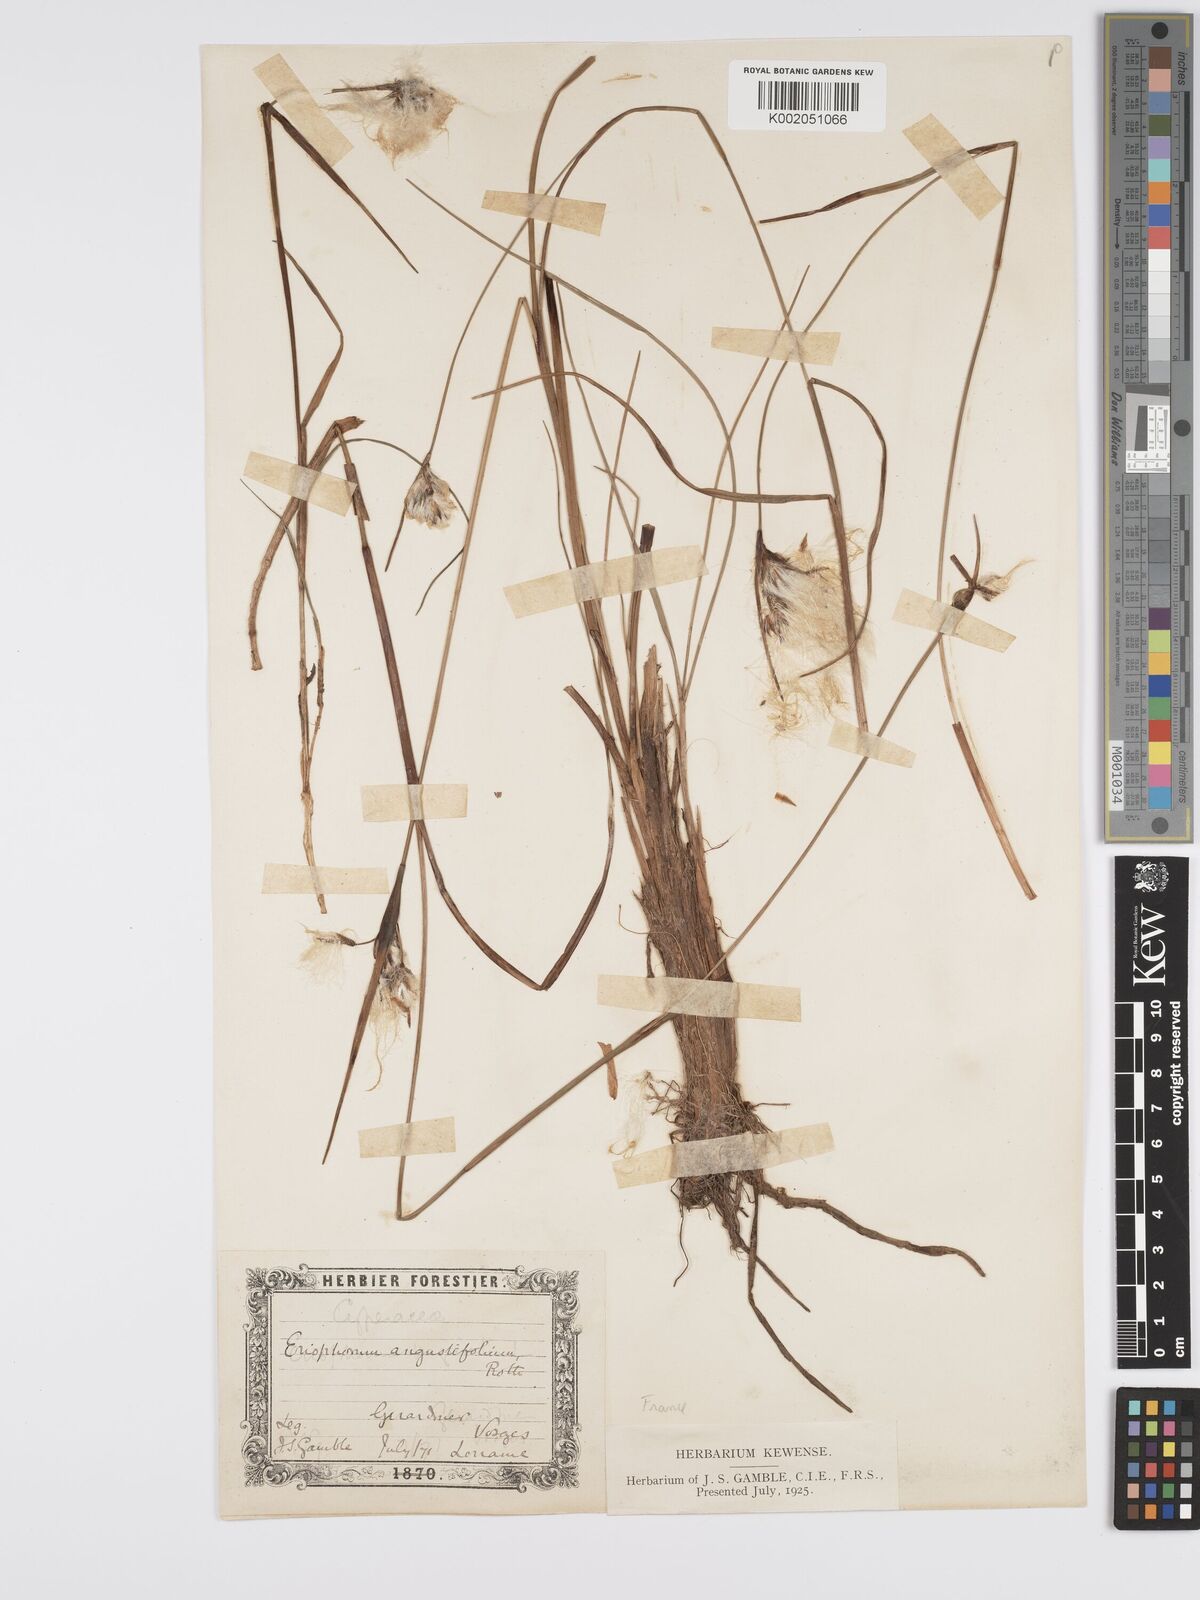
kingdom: Plantae
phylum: Tracheophyta
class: Liliopsida
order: Poales
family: Cyperaceae
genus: Eriophorum
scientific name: Eriophorum angustifolium
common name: Common cottongrass
